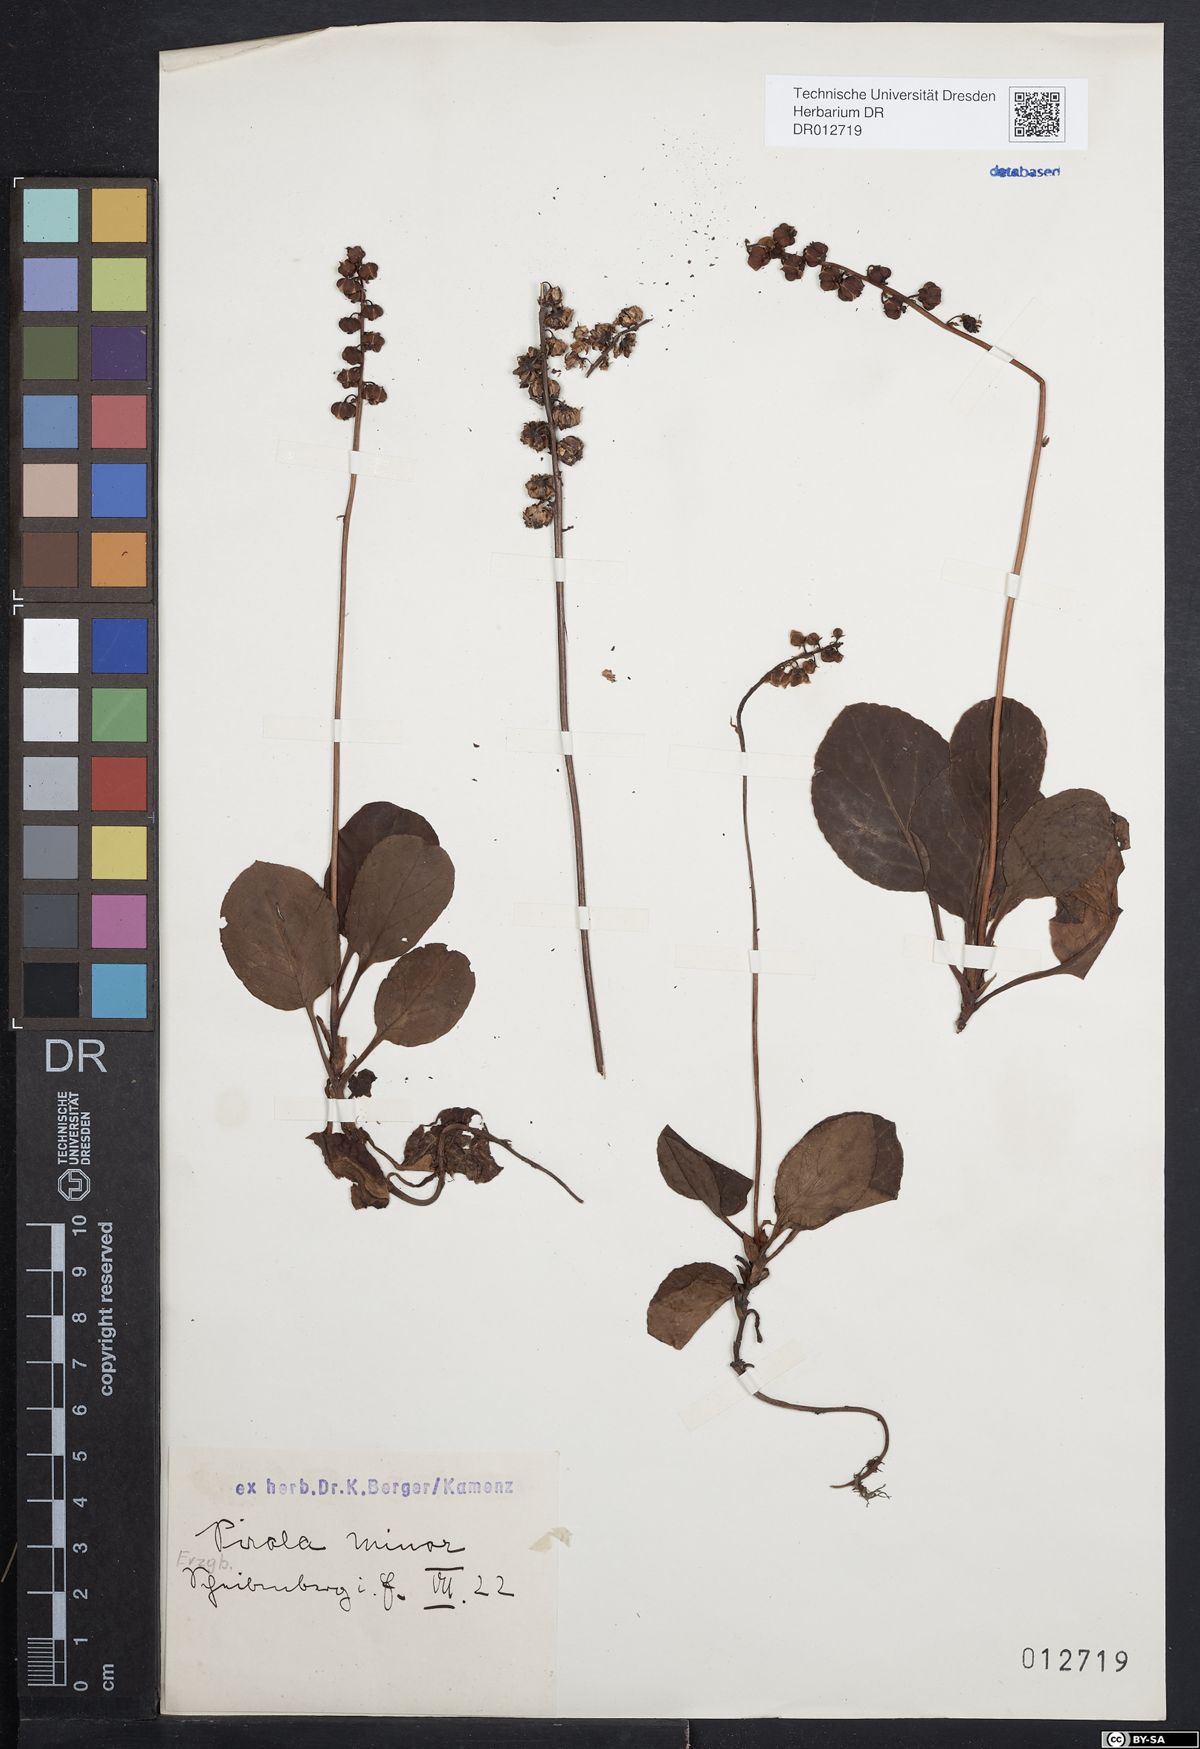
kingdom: Plantae
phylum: Tracheophyta
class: Magnoliopsida
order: Ericales
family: Ericaceae
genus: Pyrola
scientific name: Pyrola minor
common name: Common wintergreen
